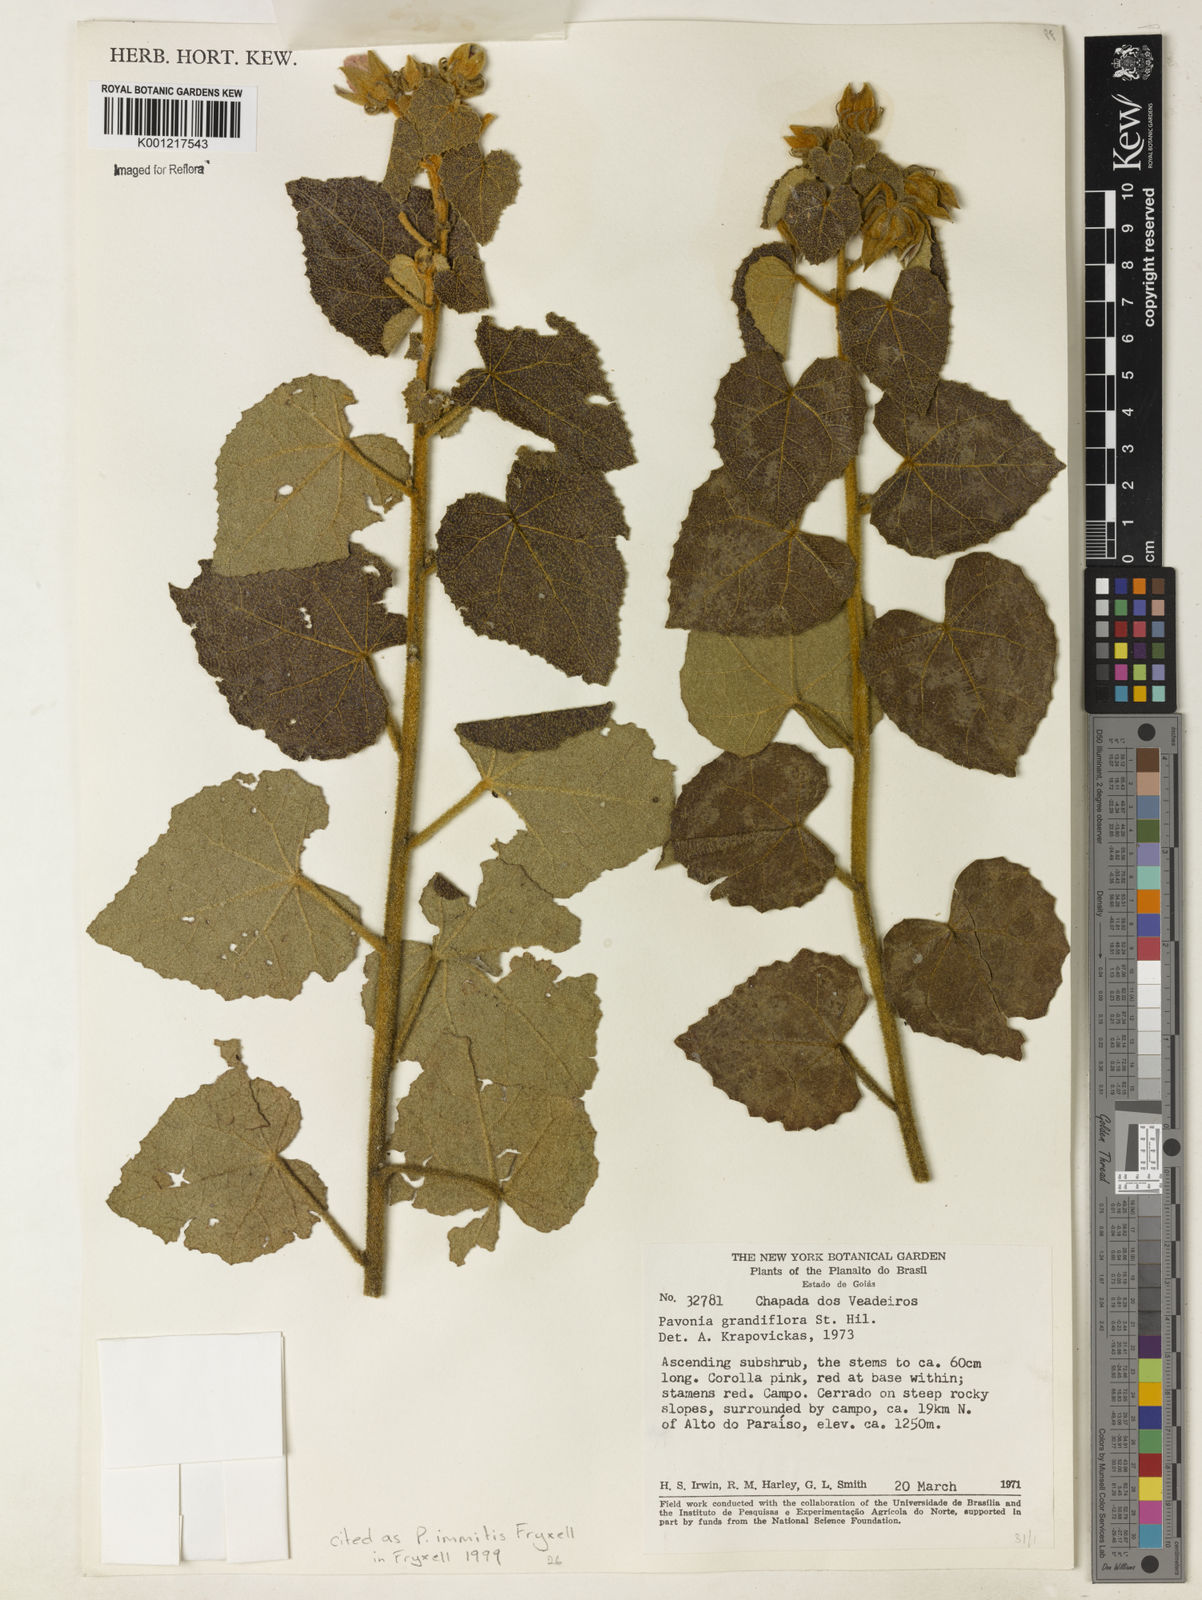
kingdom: Plantae
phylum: Tracheophyta
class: Magnoliopsida
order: Malvales
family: Malvaceae
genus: Pavonia
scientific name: Pavonia immitis
